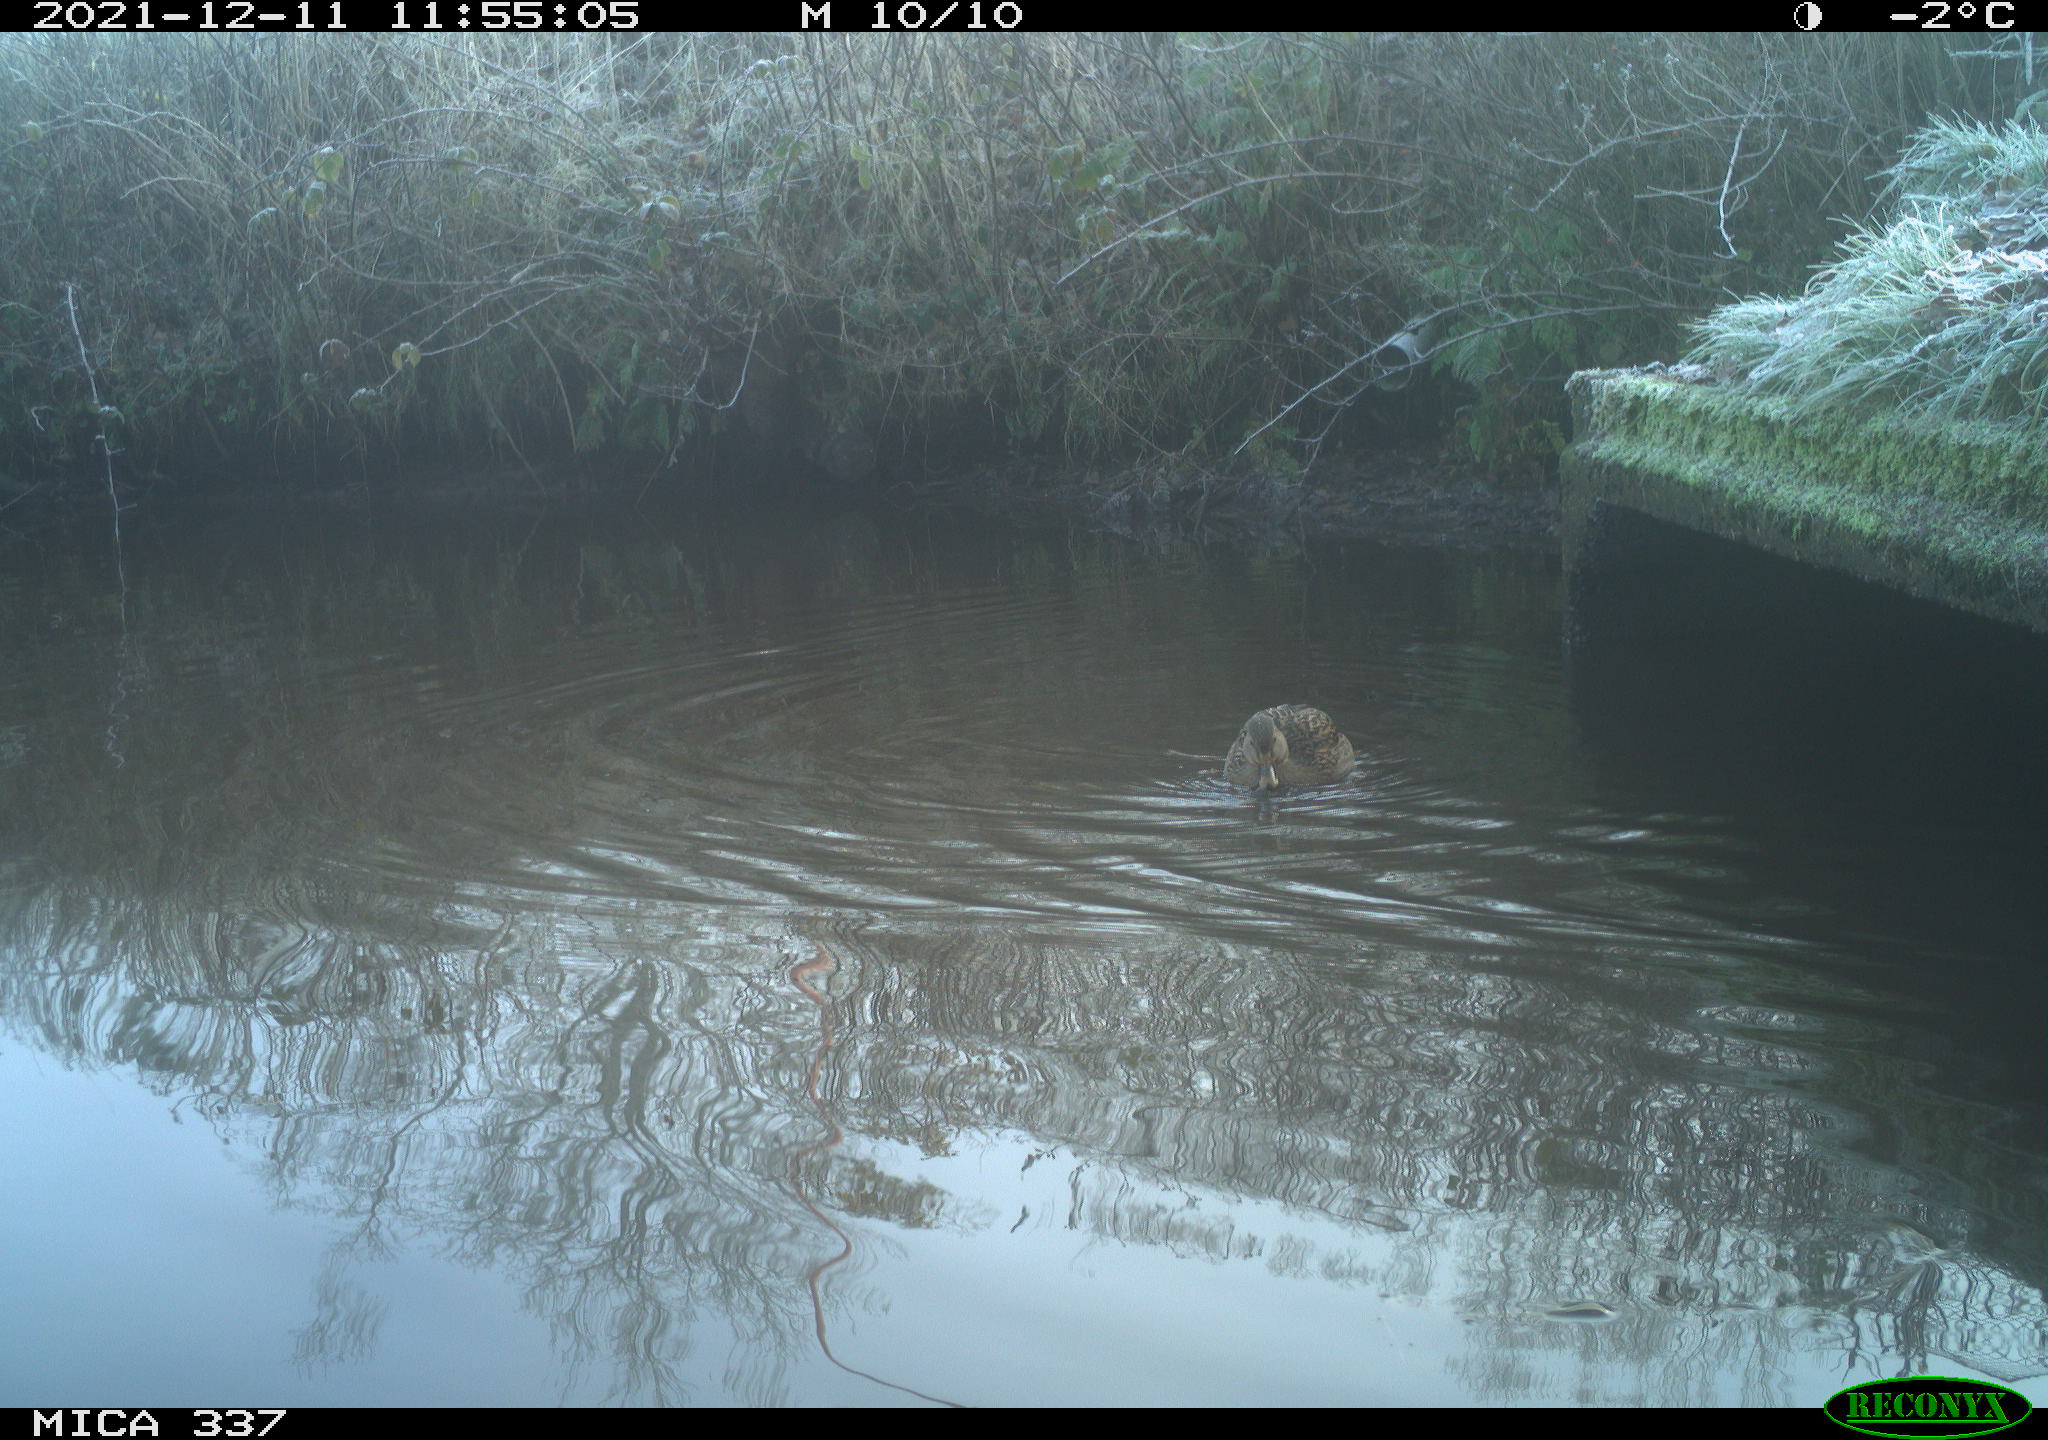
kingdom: Animalia
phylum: Chordata
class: Aves
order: Anseriformes
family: Anatidae
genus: Anas
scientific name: Anas platyrhynchos
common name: Mallard
